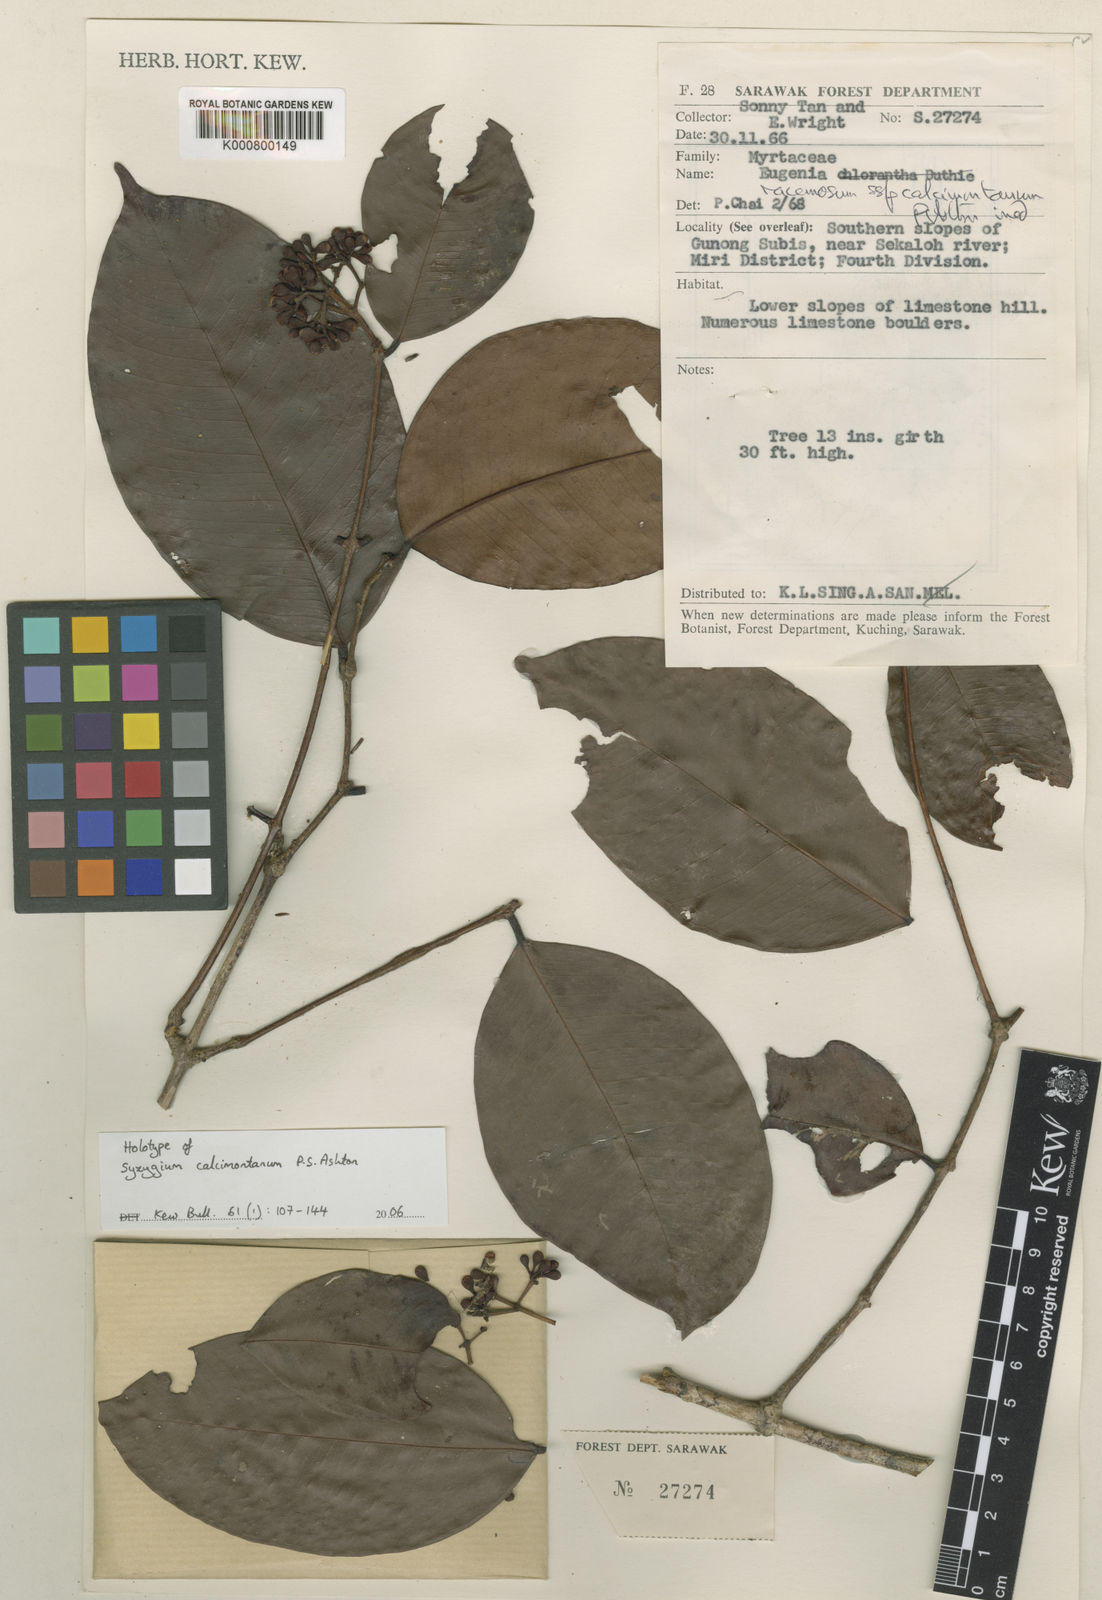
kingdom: Plantae
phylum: Tracheophyta
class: Magnoliopsida
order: Myrtales
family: Myrtaceae
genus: Syzygium
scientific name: Syzygium racemosum
